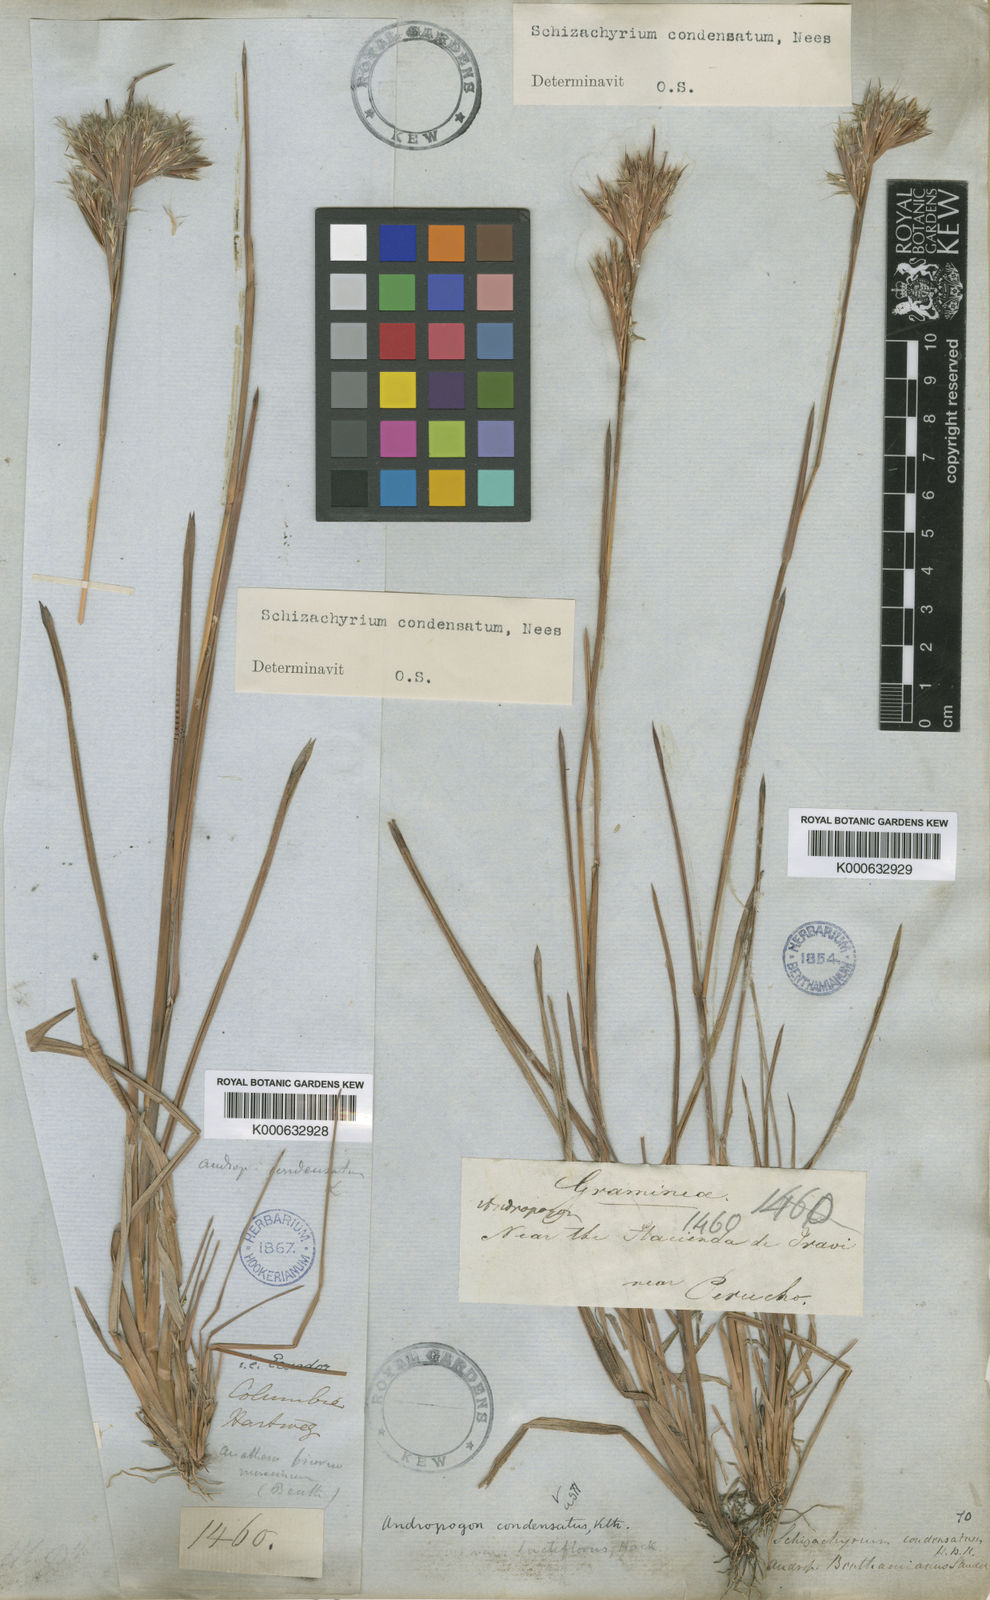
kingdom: Plantae
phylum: Tracheophyta
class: Liliopsida
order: Poales
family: Poaceae
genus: Schizachyrium
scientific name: Schizachyrium condensatum
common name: Bush beardgrass
